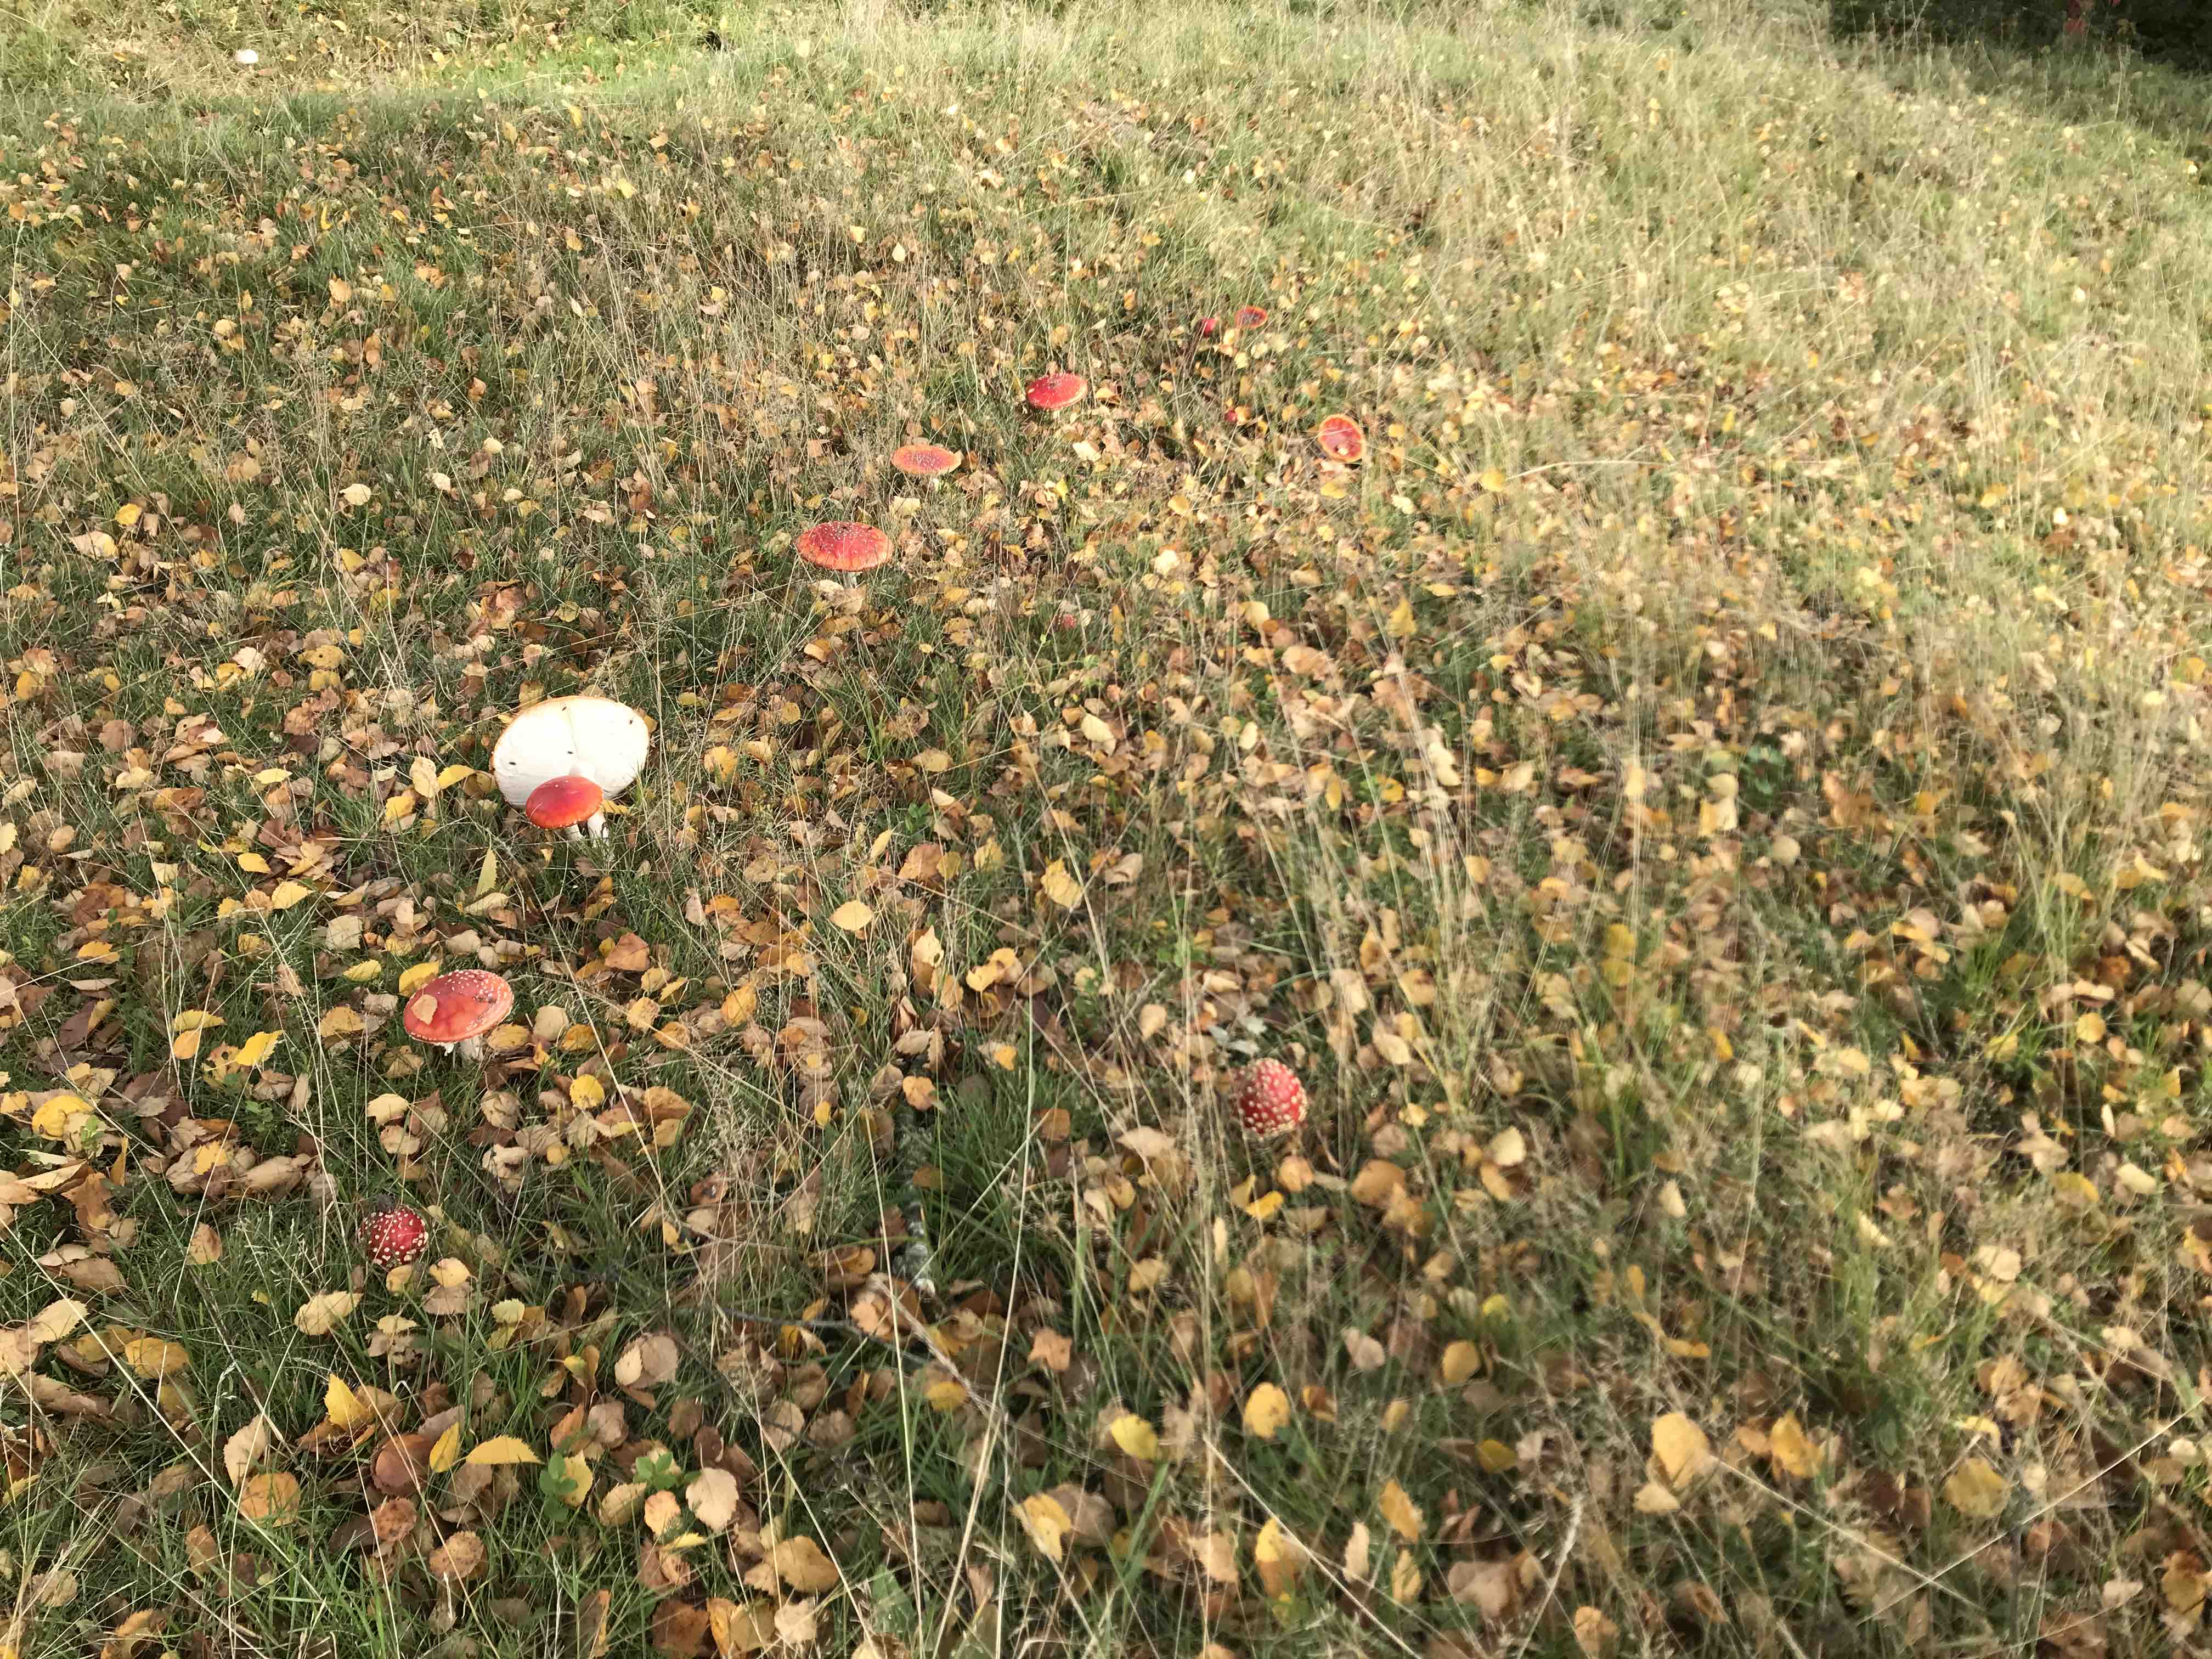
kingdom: Fungi
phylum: Basidiomycota
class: Agaricomycetes
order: Agaricales
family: Amanitaceae
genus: Amanita
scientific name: Amanita muscaria
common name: rød fluesvamp
